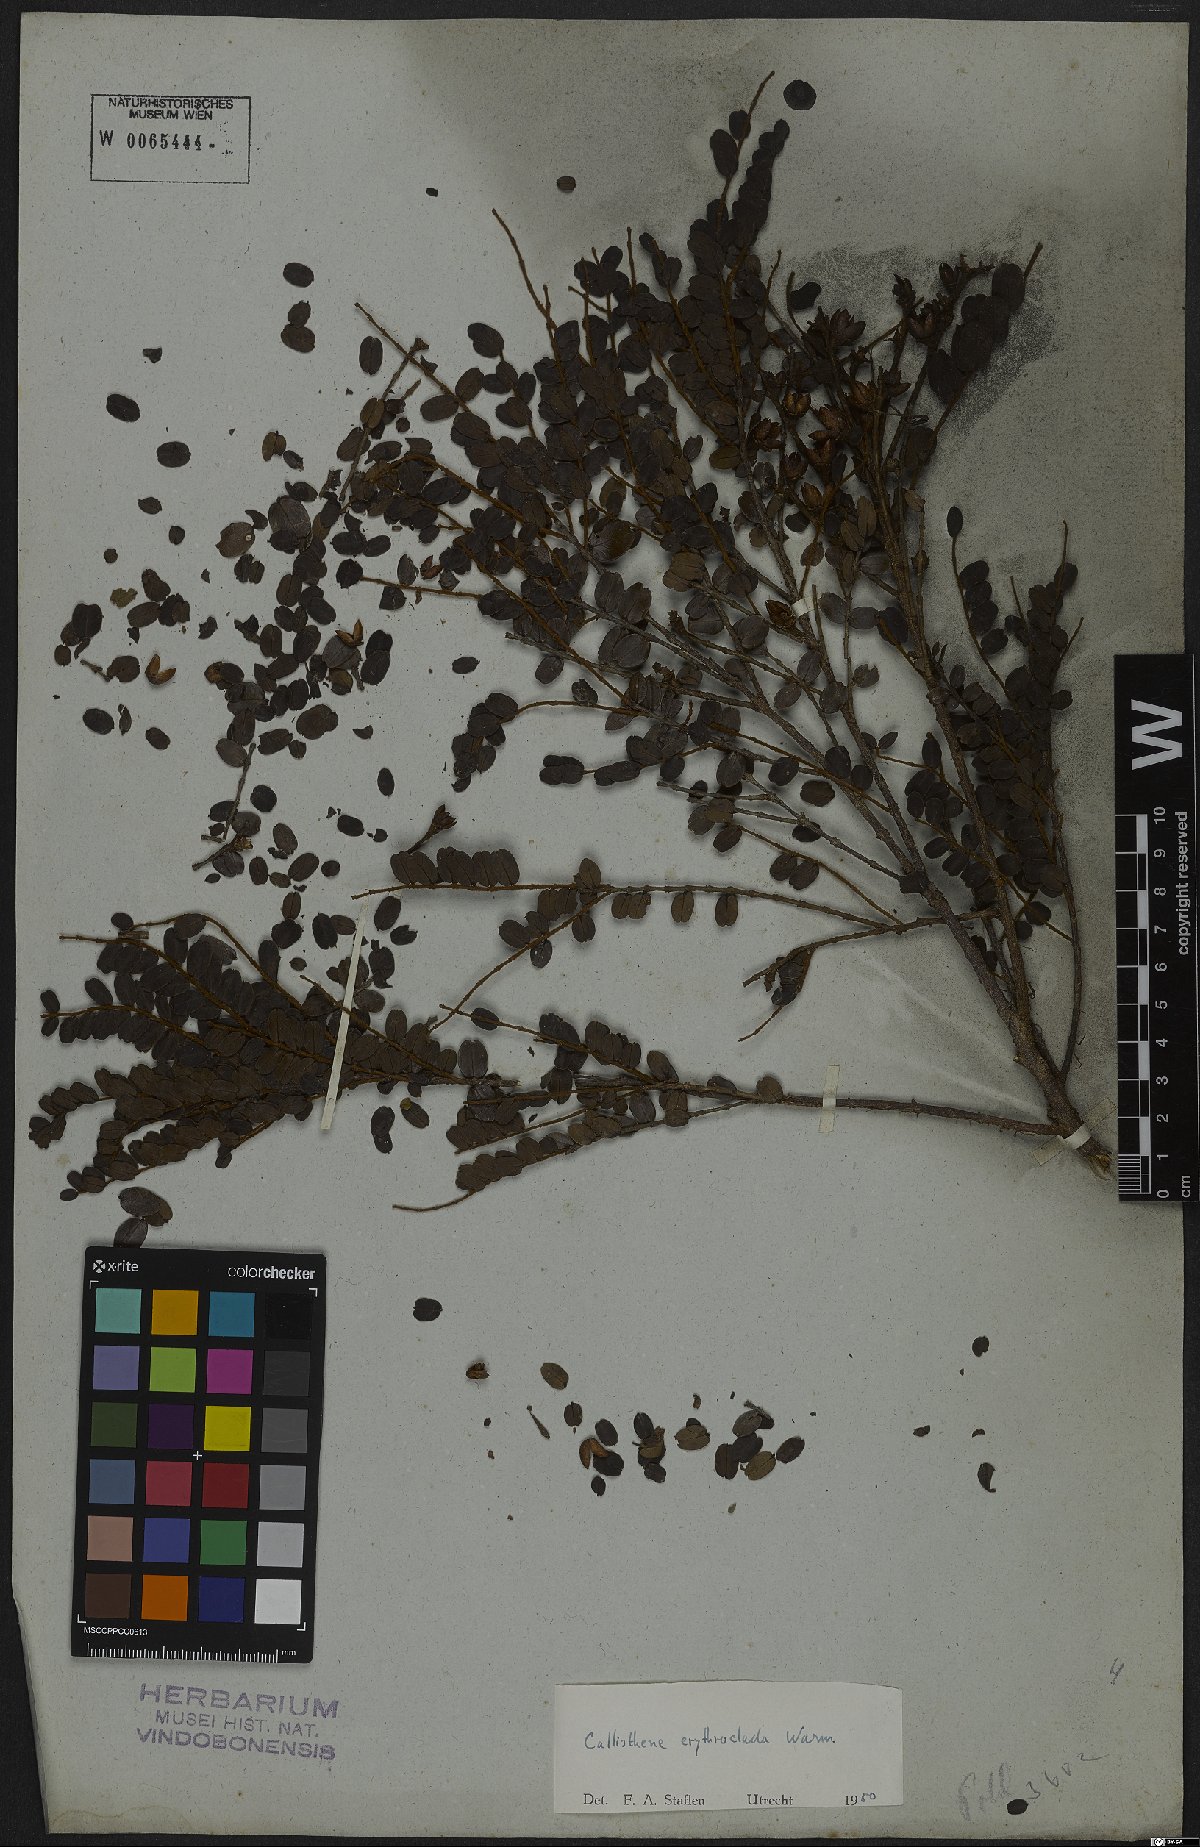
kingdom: Plantae
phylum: Tracheophyta
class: Magnoliopsida
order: Myrtales
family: Vochysiaceae
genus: Callisthene
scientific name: Callisthene erythroclada
